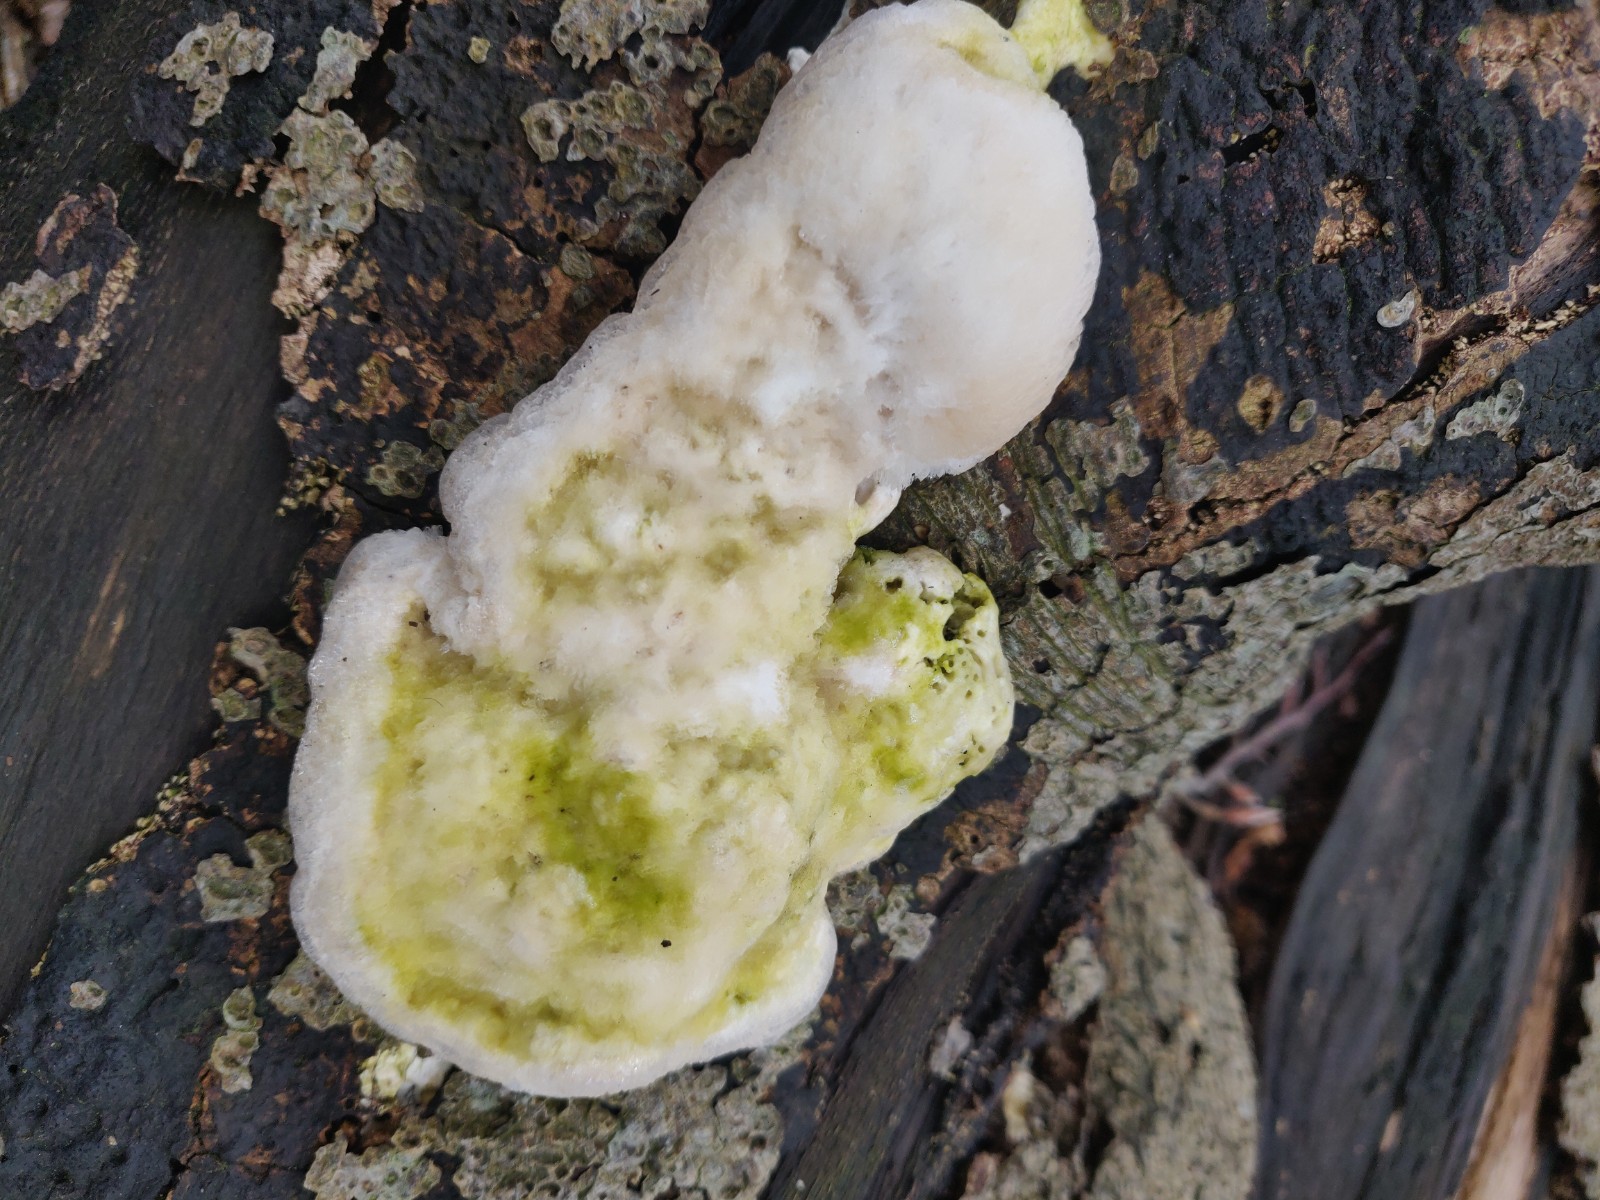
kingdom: Fungi
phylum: Basidiomycota
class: Agaricomycetes
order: Polyporales
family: Polyporaceae
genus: Trametes
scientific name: Trametes hirsuta
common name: håret læderporesvamp
